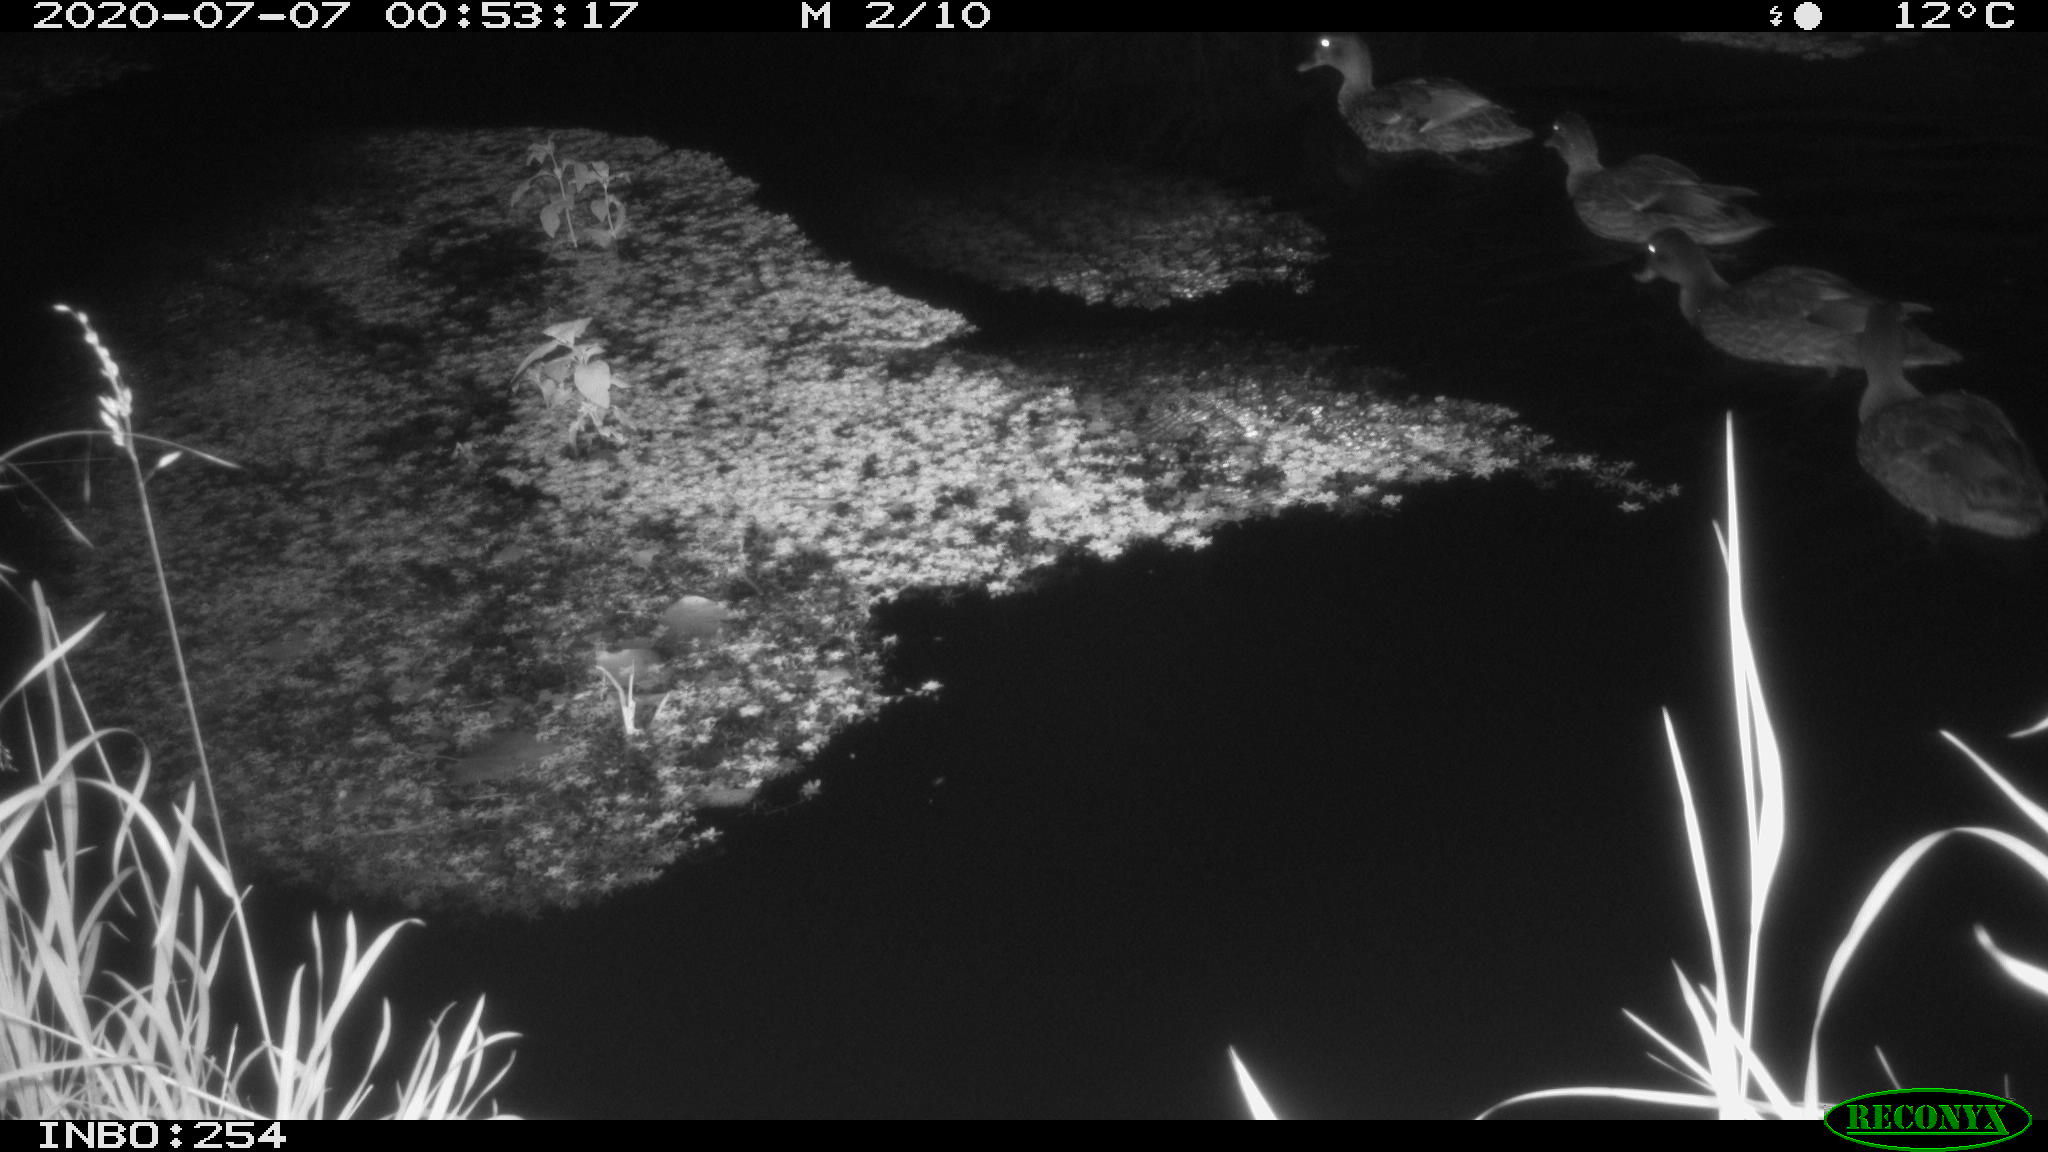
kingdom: Animalia
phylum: Chordata
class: Aves
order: Anseriformes
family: Anatidae
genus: Anas
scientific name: Anas platyrhynchos
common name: Mallard
